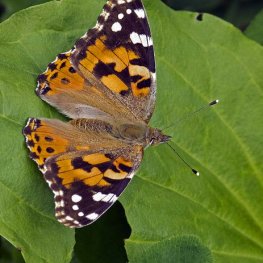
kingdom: Animalia
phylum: Arthropoda
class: Insecta
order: Lepidoptera
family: Nymphalidae
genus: Vanessa
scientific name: Vanessa cardui
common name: Painted Lady
